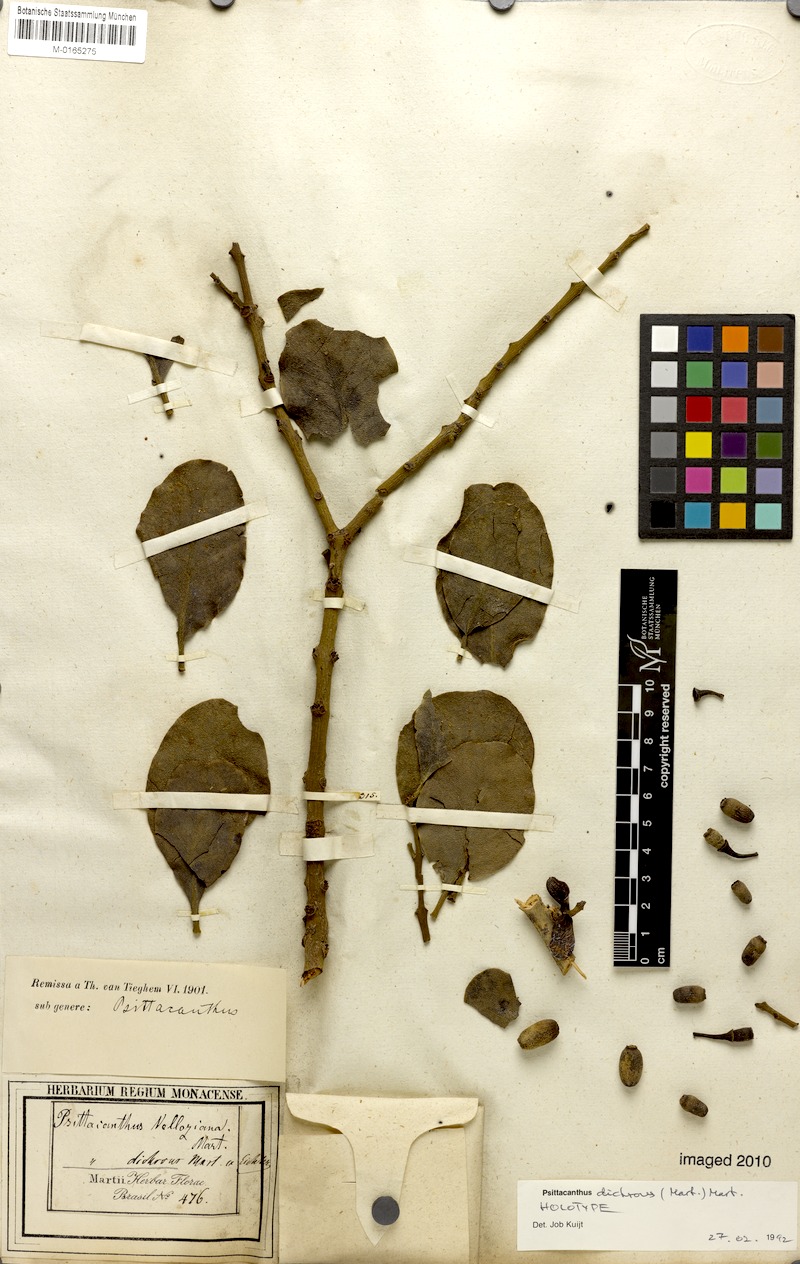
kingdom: Plantae
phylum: Tracheophyta
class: Magnoliopsida
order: Santalales
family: Loranthaceae
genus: Psittacanthus
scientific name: Psittacanthus dichroos
